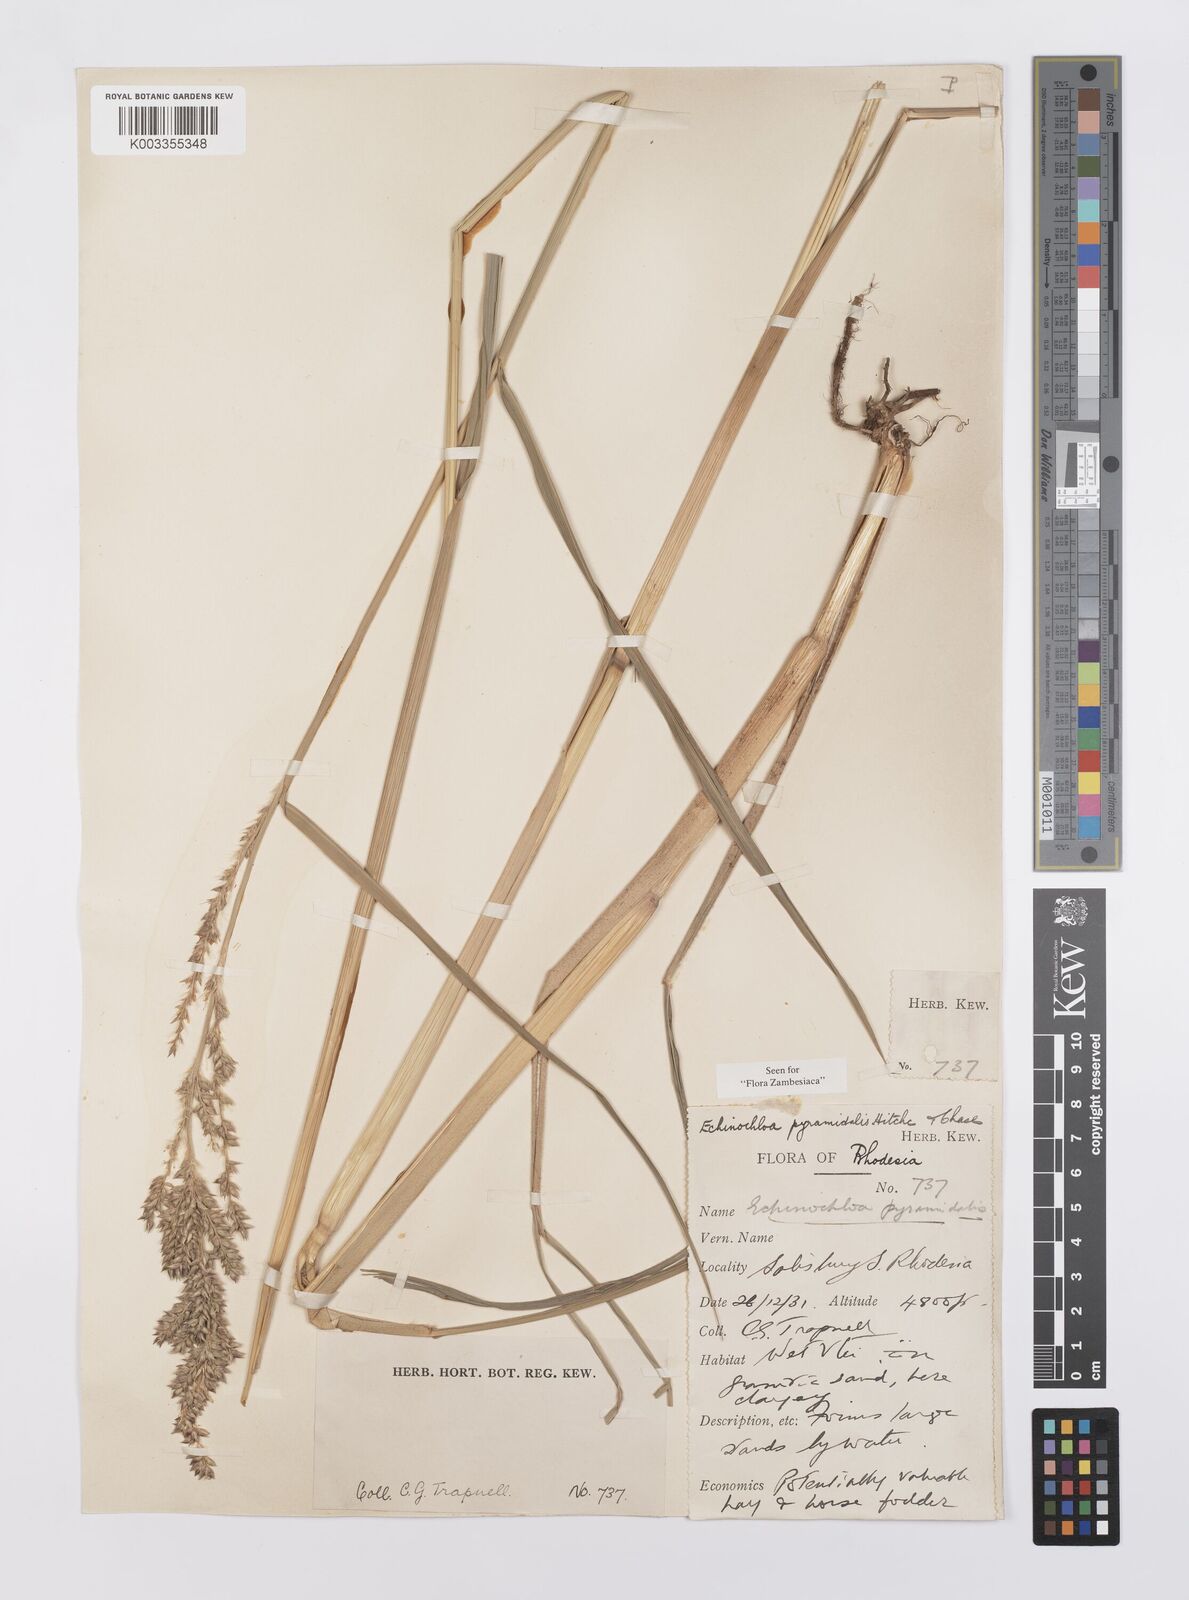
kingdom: Plantae
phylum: Tracheophyta
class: Liliopsida
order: Poales
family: Poaceae
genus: Echinochloa
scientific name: Echinochloa pyramidalis
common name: Antelope grass
